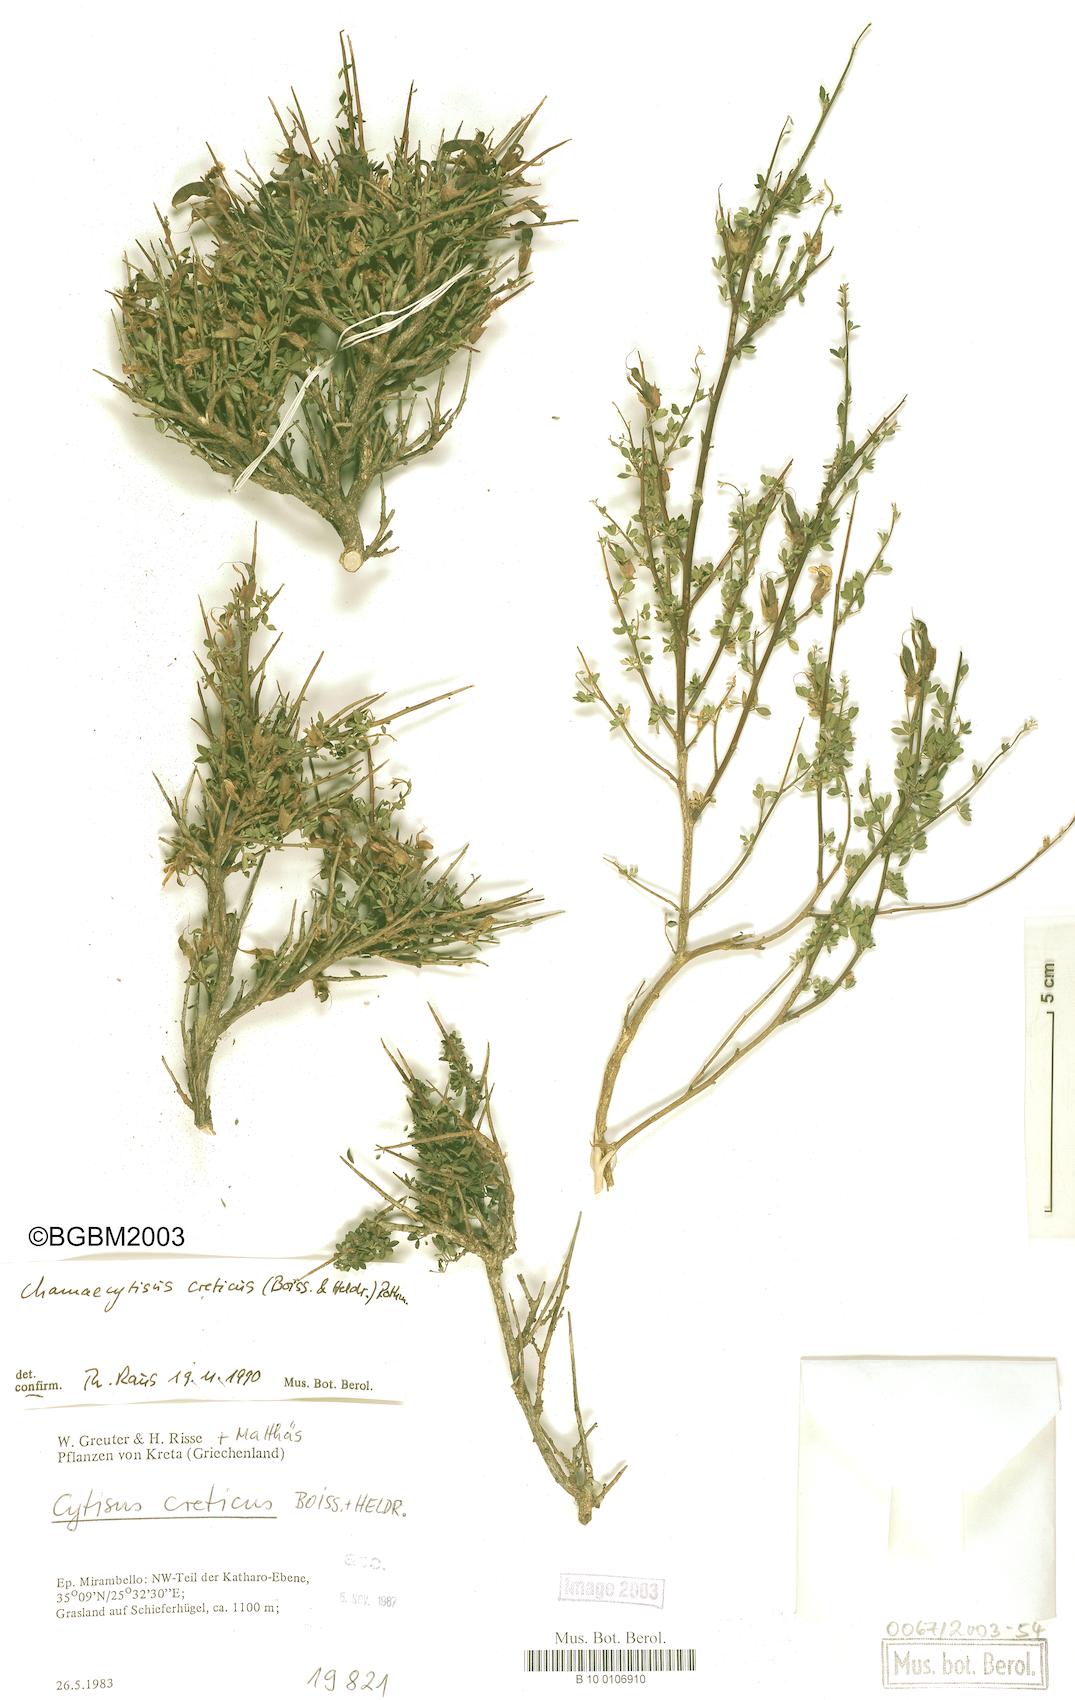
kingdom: Plantae
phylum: Tracheophyta
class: Magnoliopsida
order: Fabales
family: Fabaceae
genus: Chamaecytisus
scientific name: Chamaecytisus spinescens
